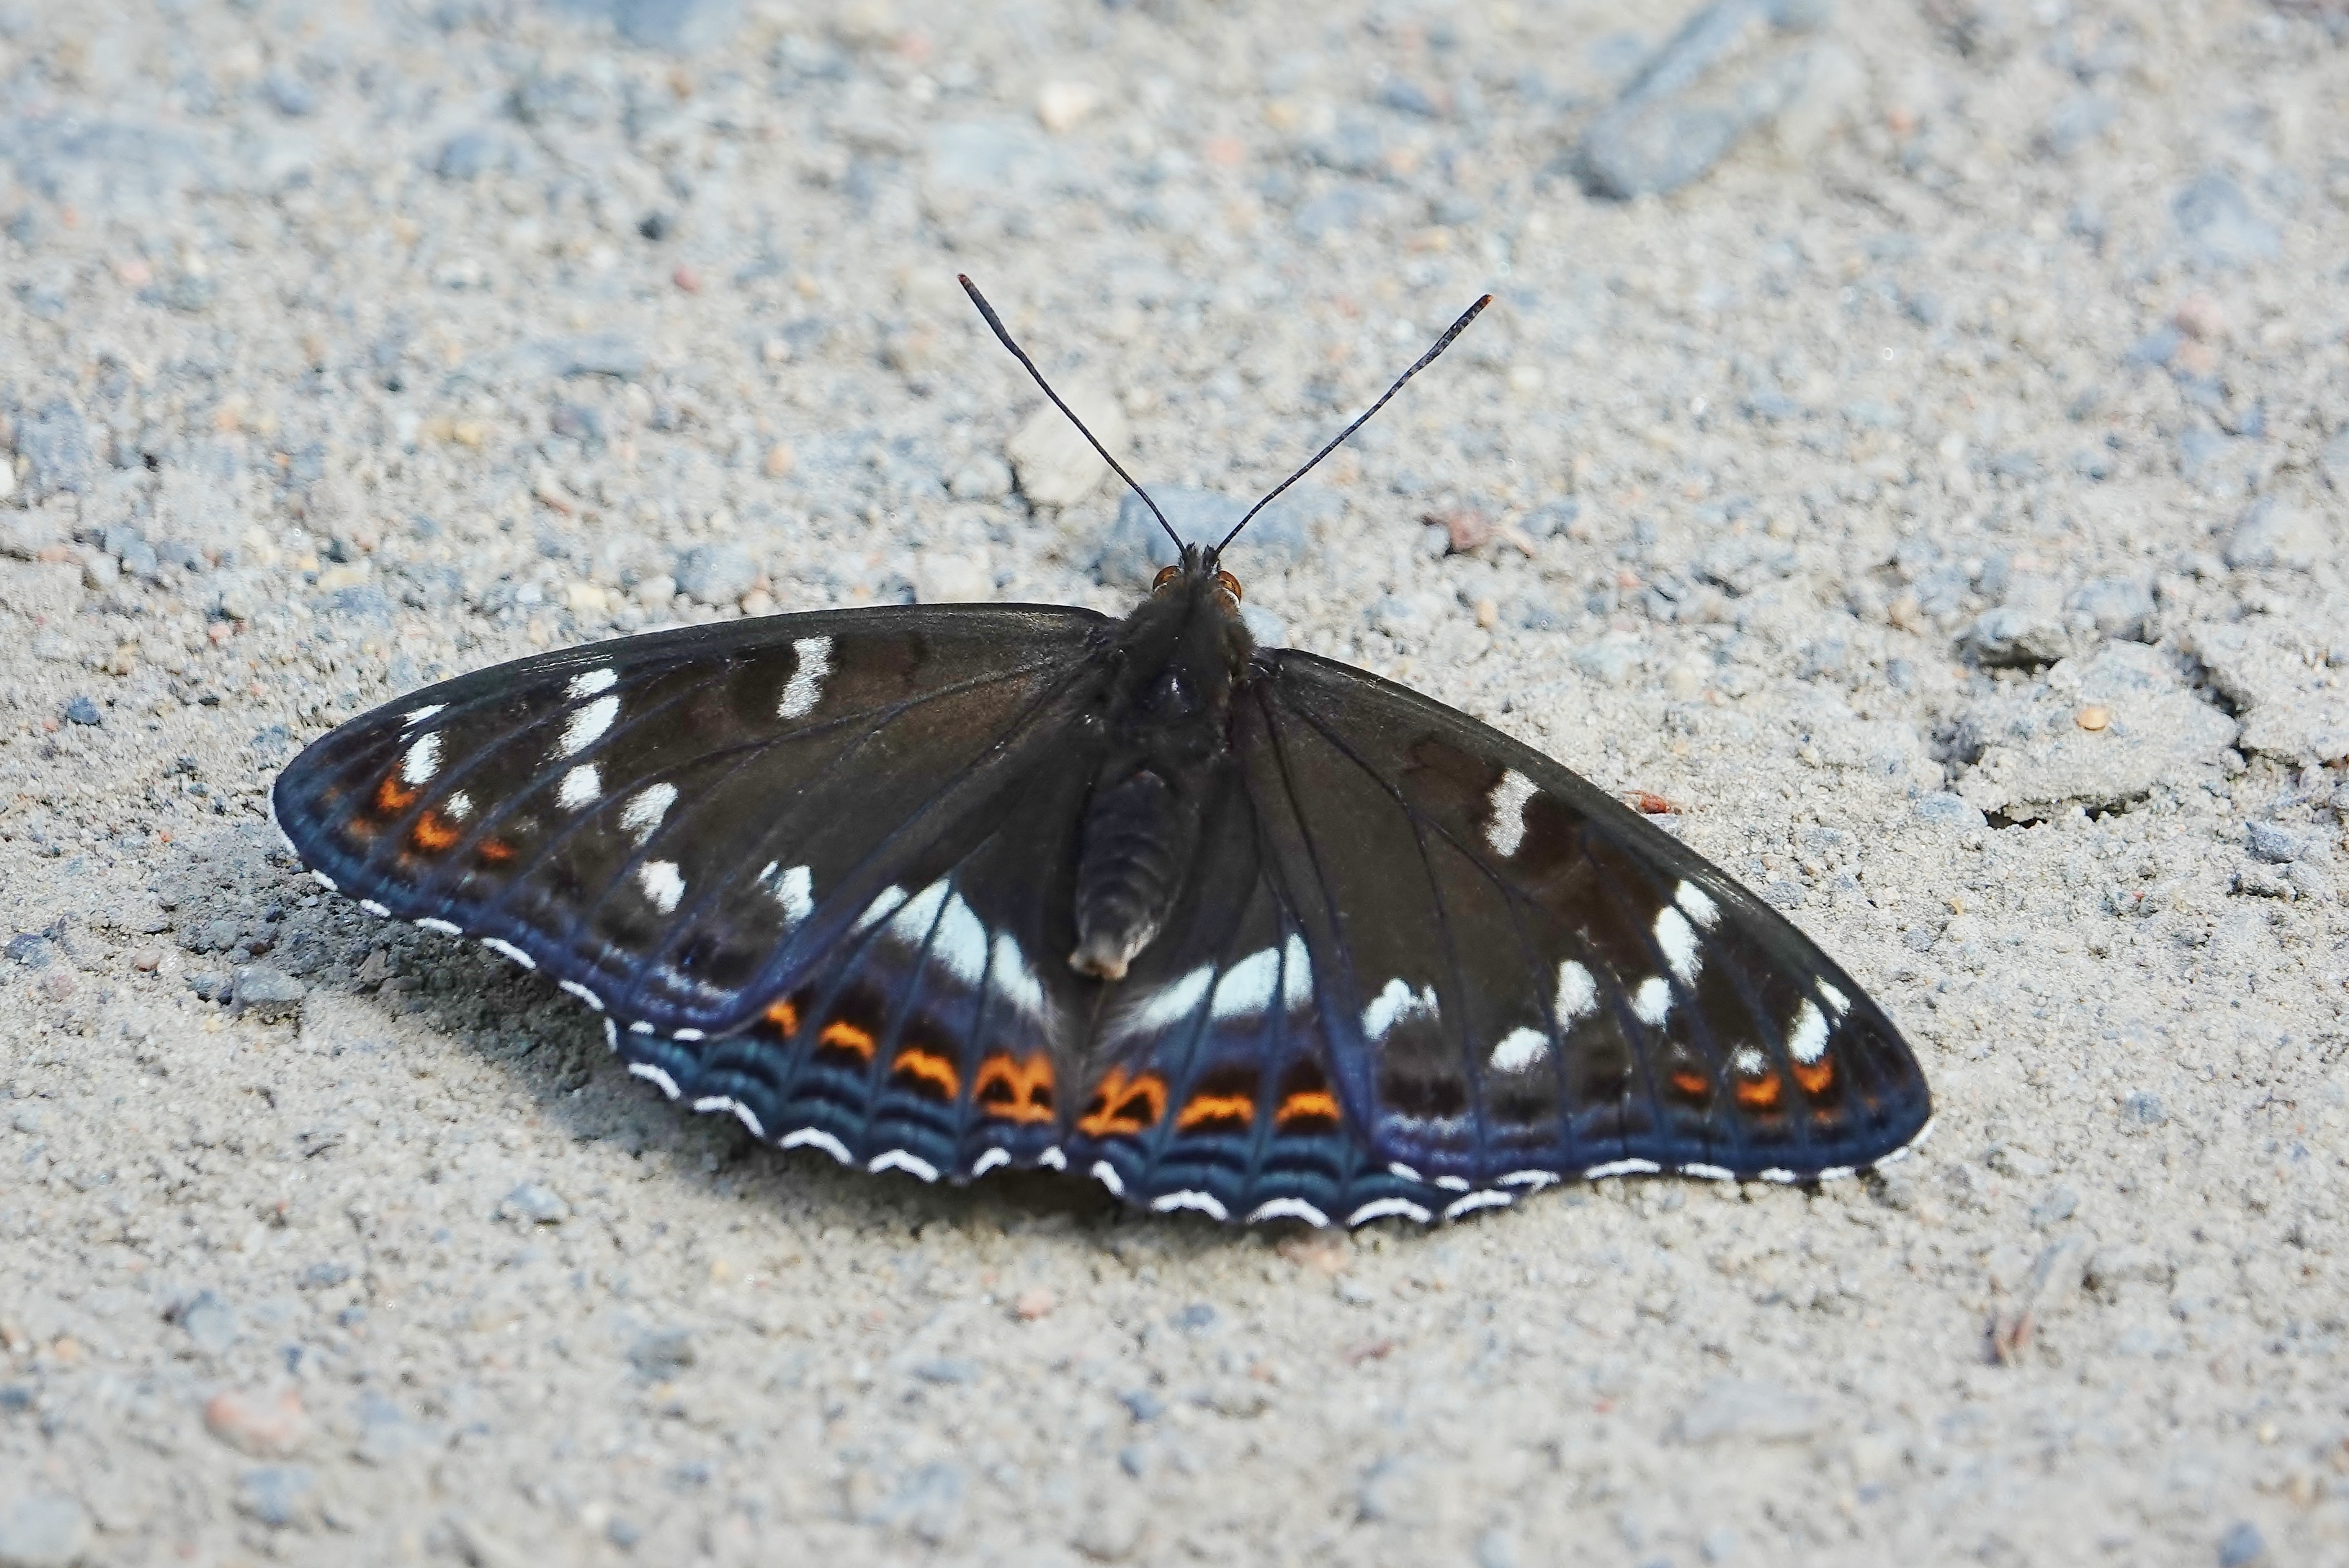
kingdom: Animalia
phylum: Arthropoda
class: Insecta
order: Lepidoptera
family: Nymphalidae
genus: Limenitis
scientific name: Limenitis populi
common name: Poplar admiral
